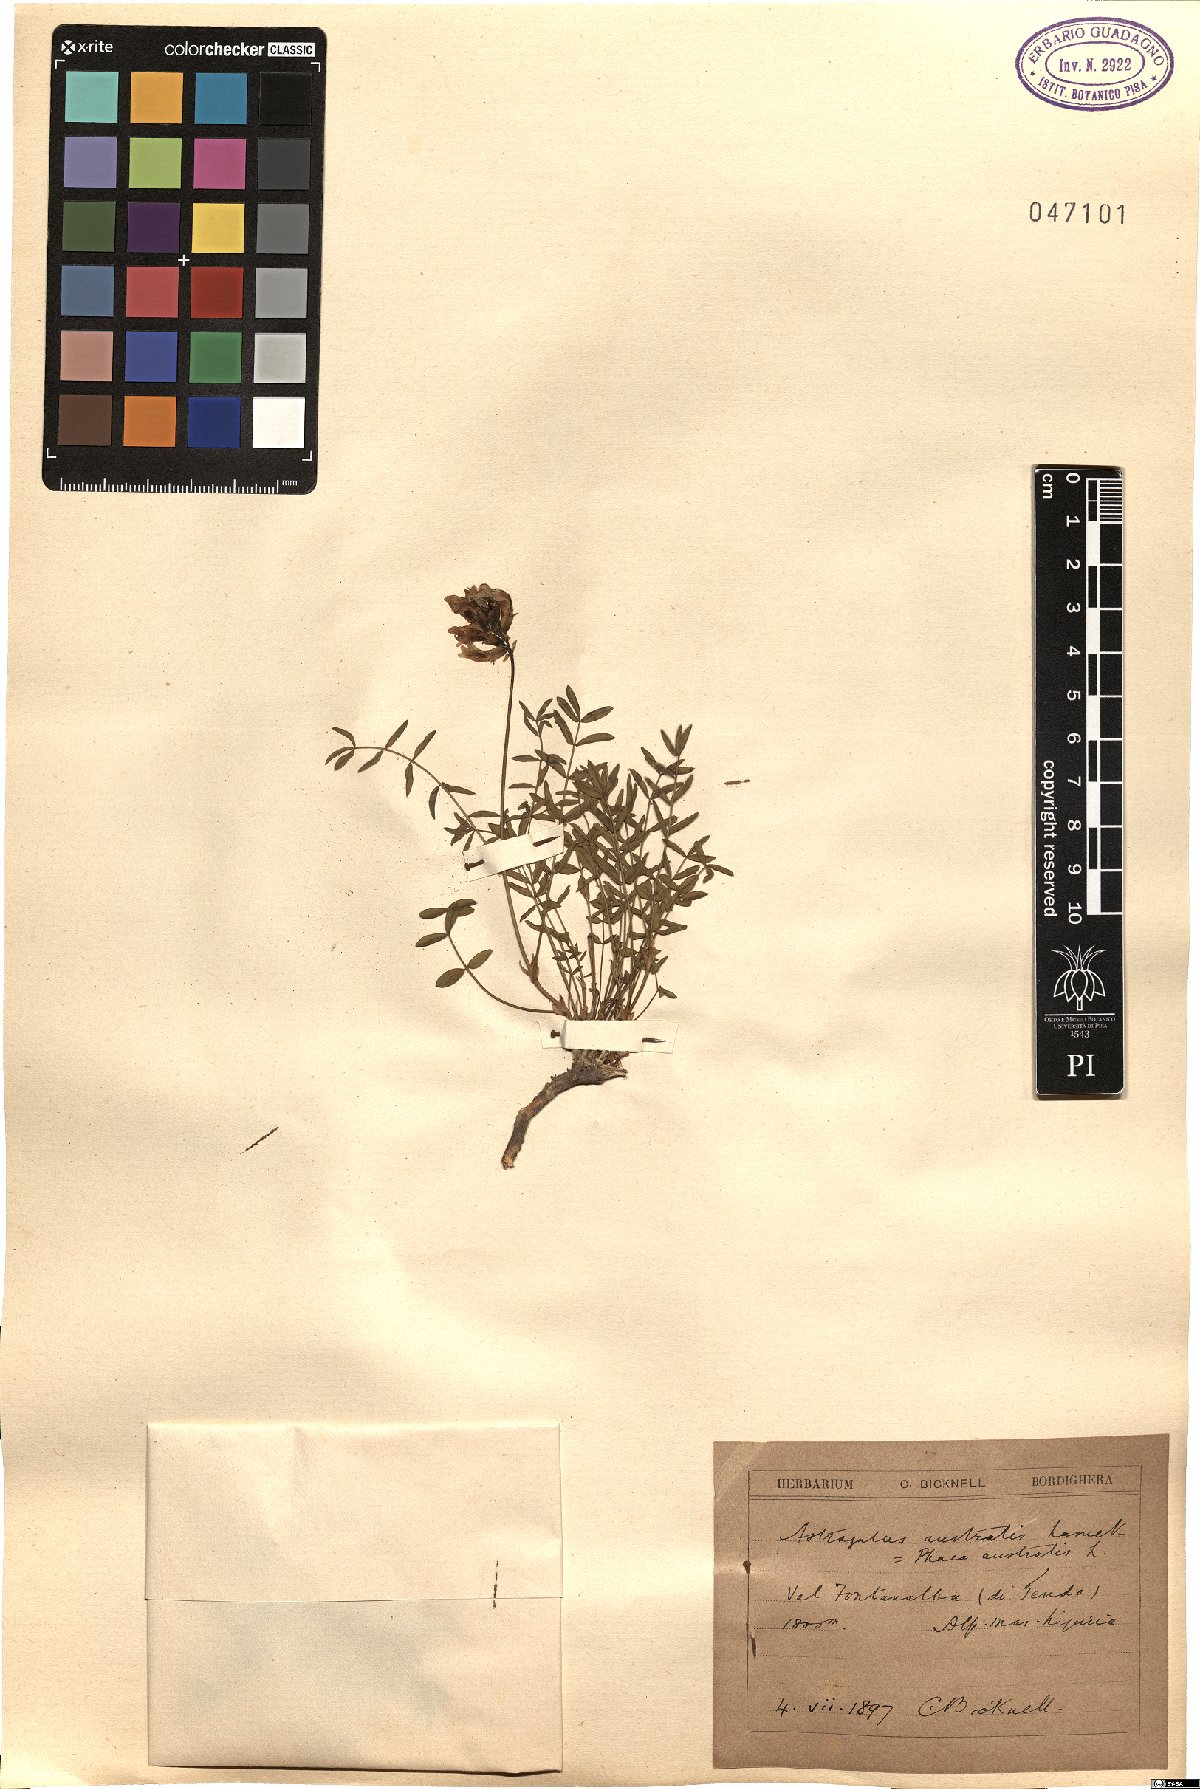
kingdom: Plantae
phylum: Tracheophyta
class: Magnoliopsida
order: Fabales
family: Fabaceae
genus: Astragalus
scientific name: Astragalus australis
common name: Indian milk-vetch
